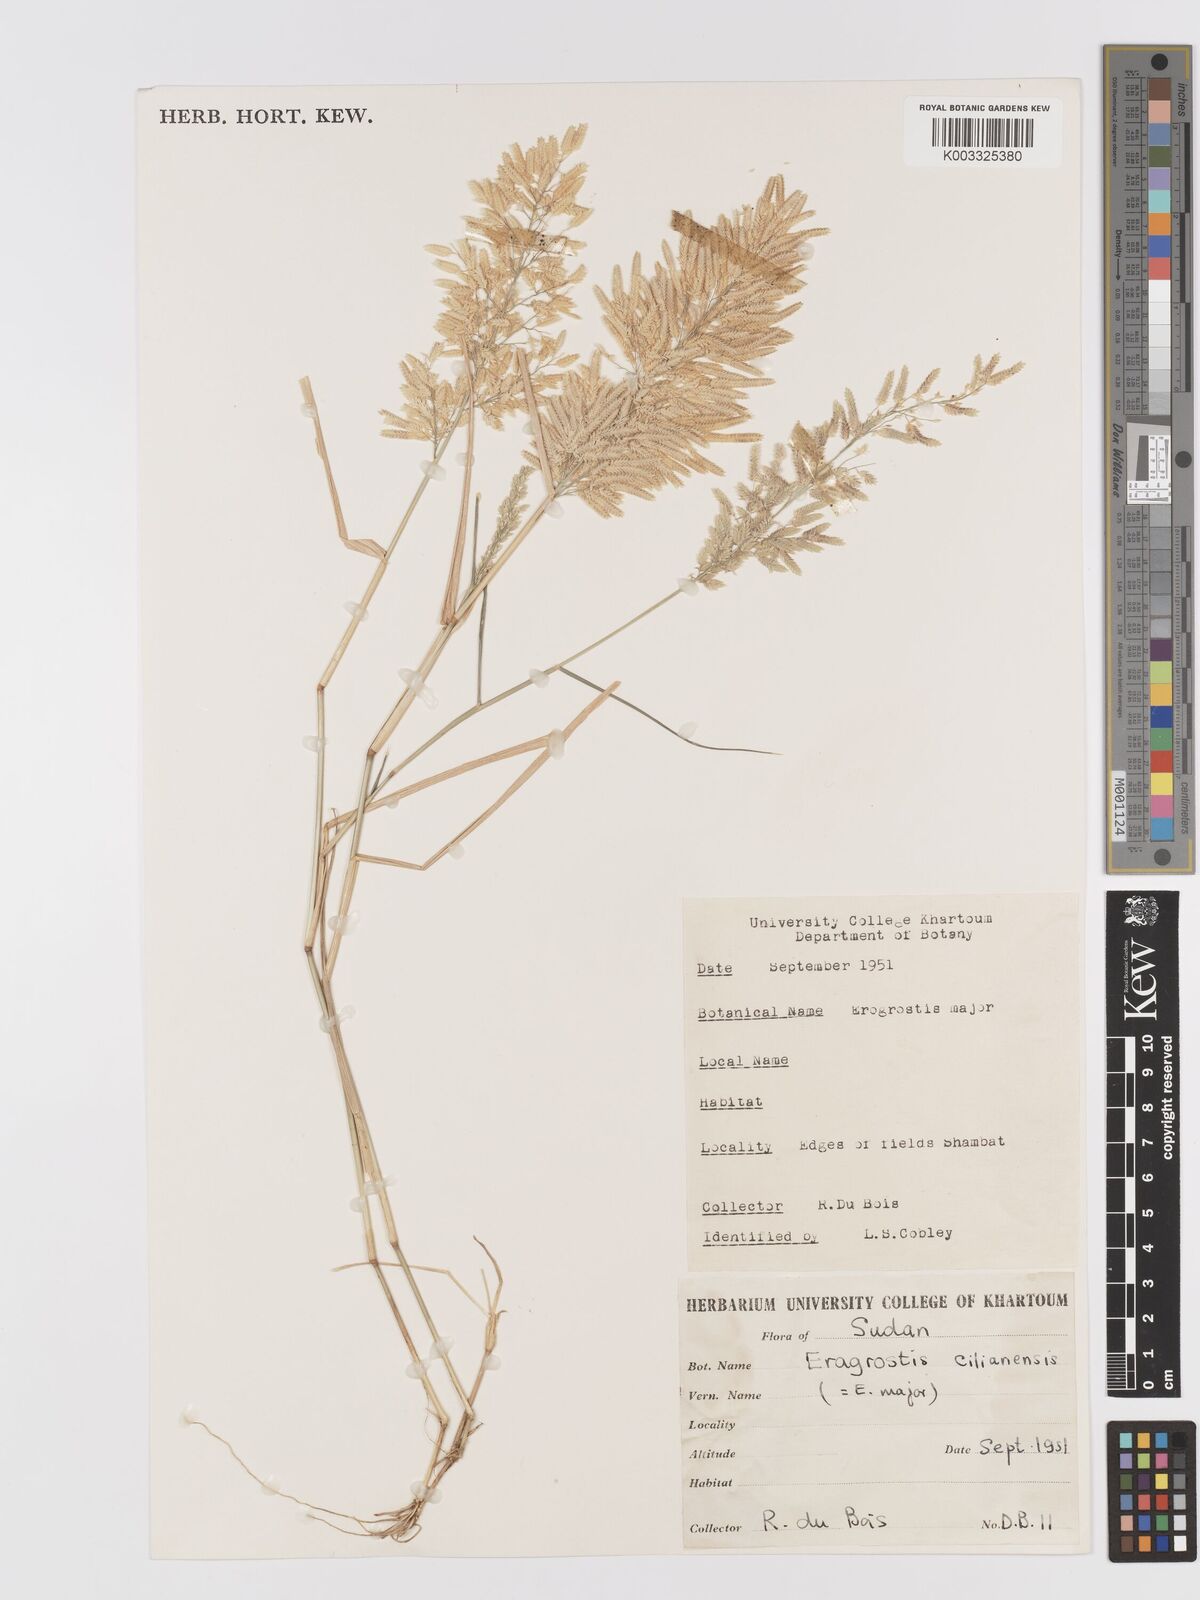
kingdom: Plantae
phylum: Tracheophyta
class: Liliopsida
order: Poales
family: Poaceae
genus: Eragrostis
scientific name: Eragrostis cilianensis
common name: Stinkgrass
